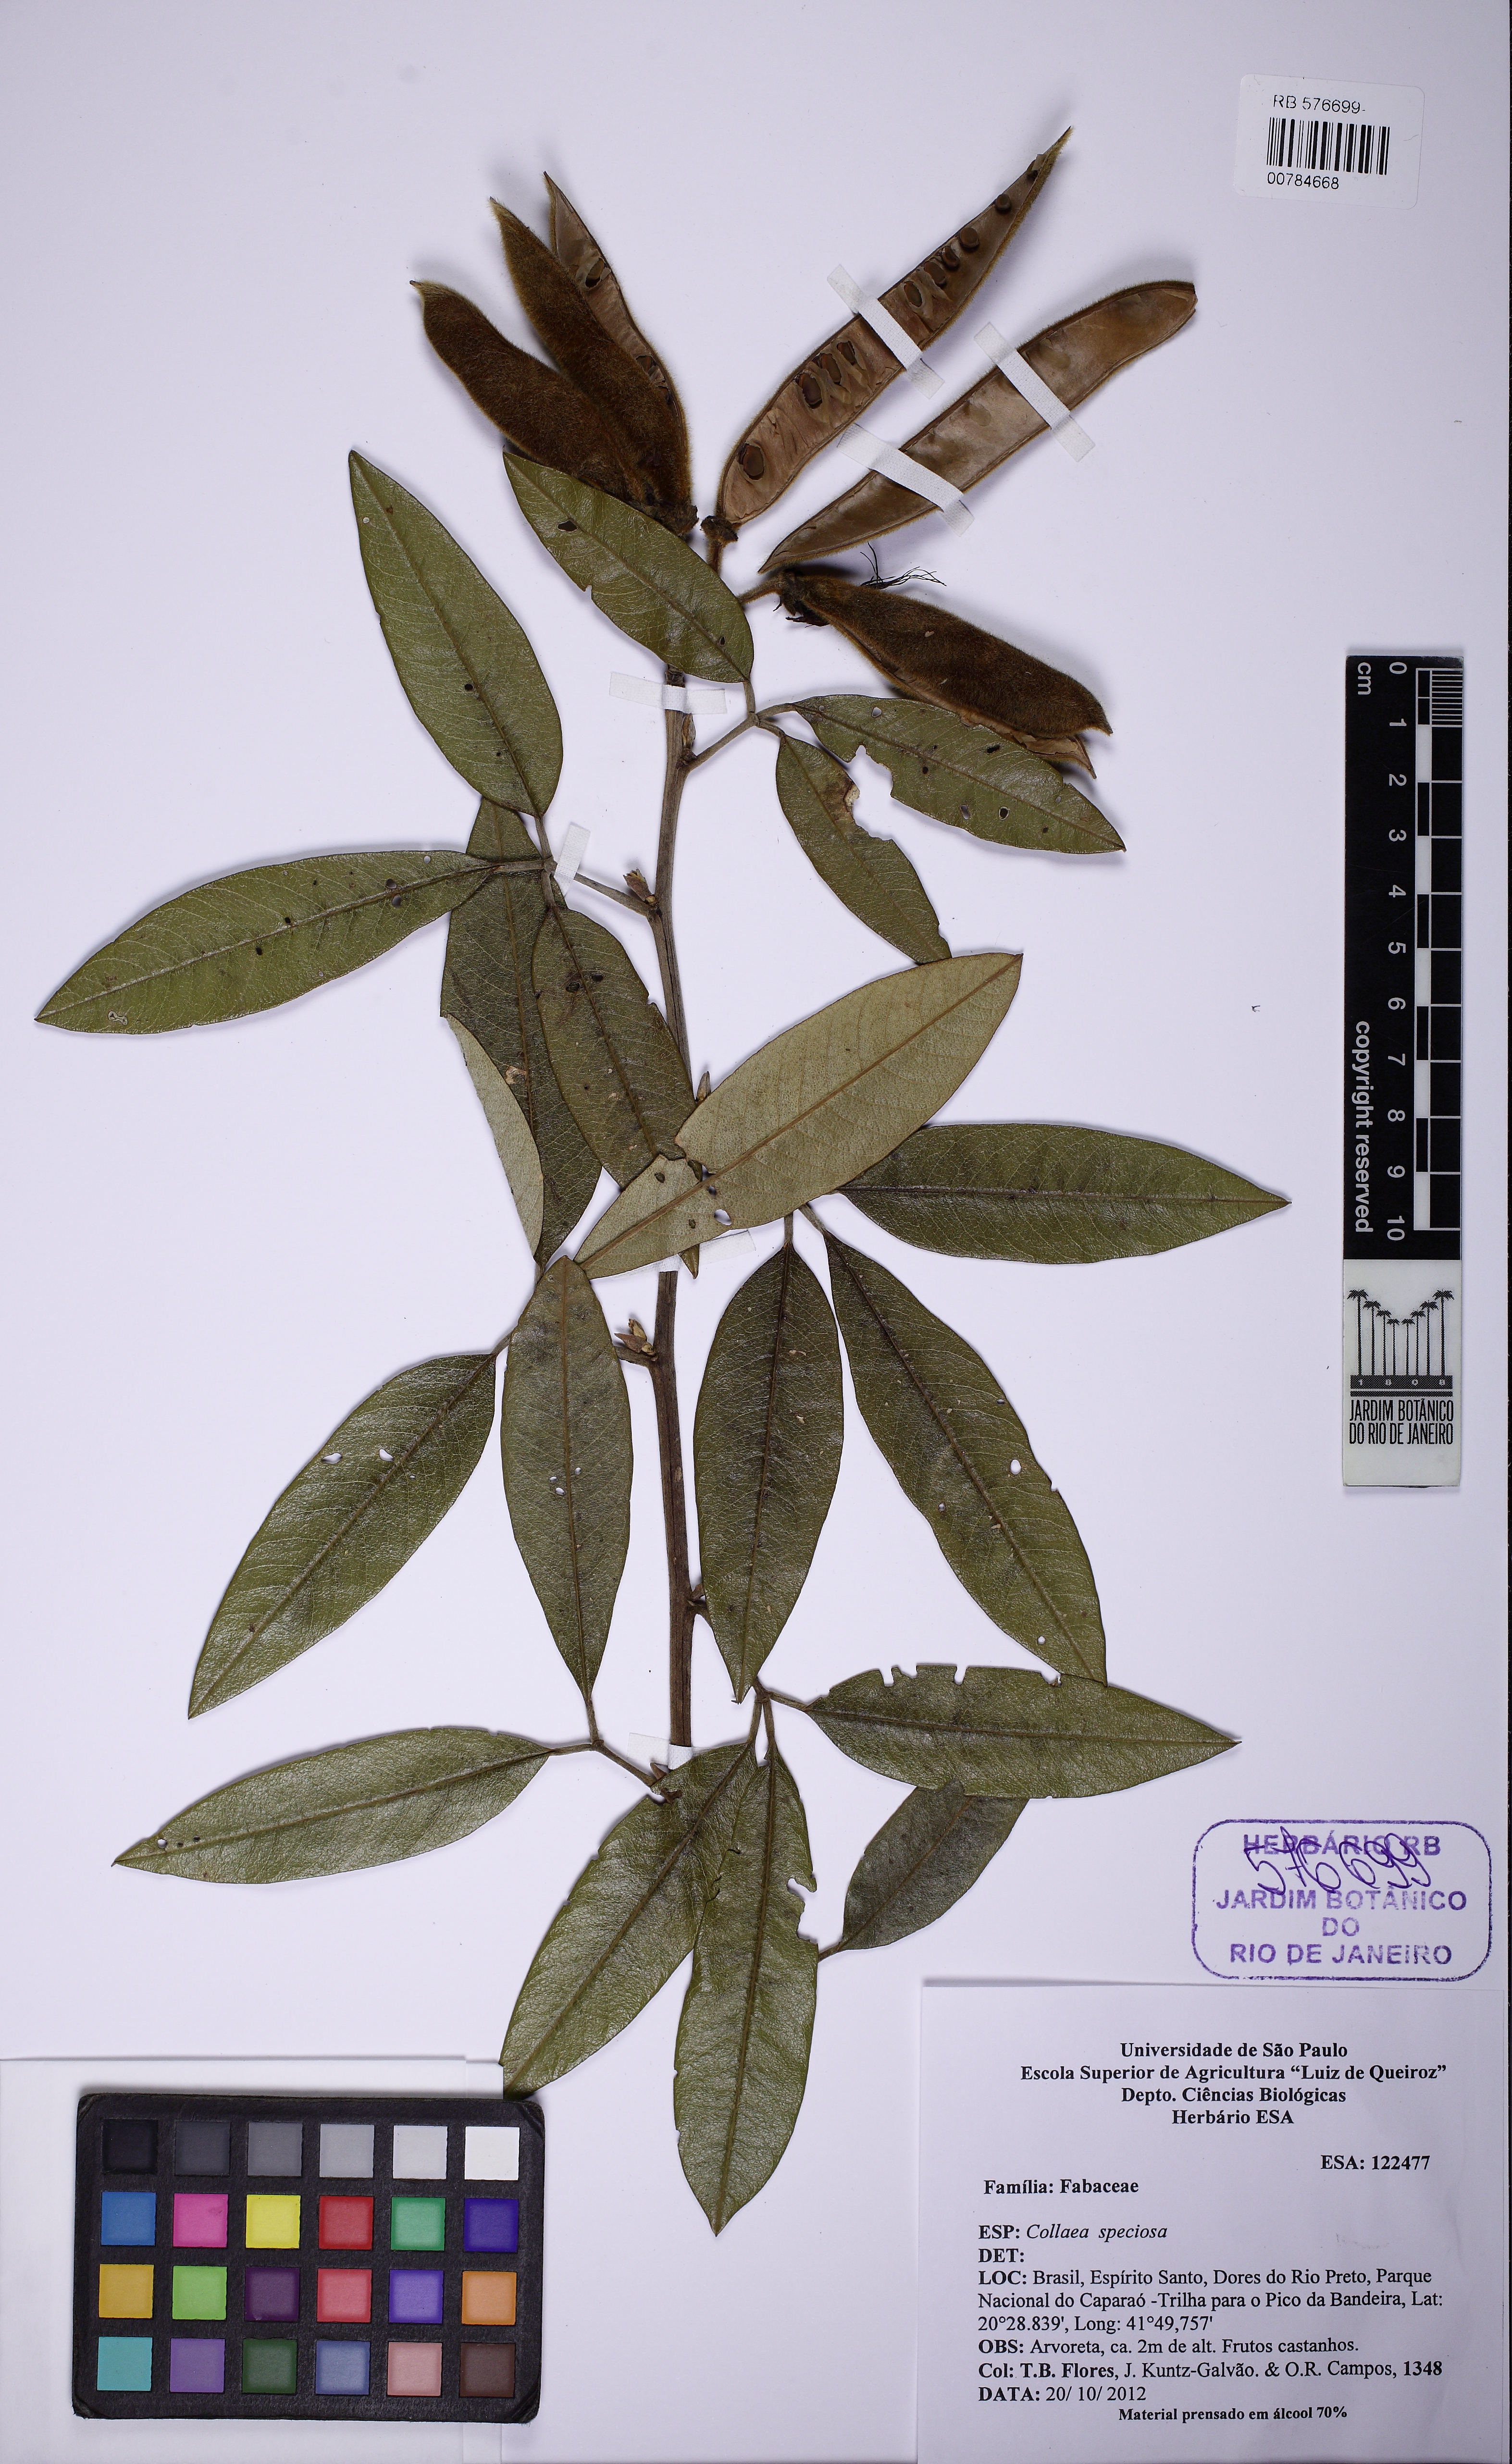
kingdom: Plantae
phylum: Tracheophyta
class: Magnoliopsida
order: Fabales
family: Fabaceae
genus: Collaea
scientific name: Collaea speciosa
